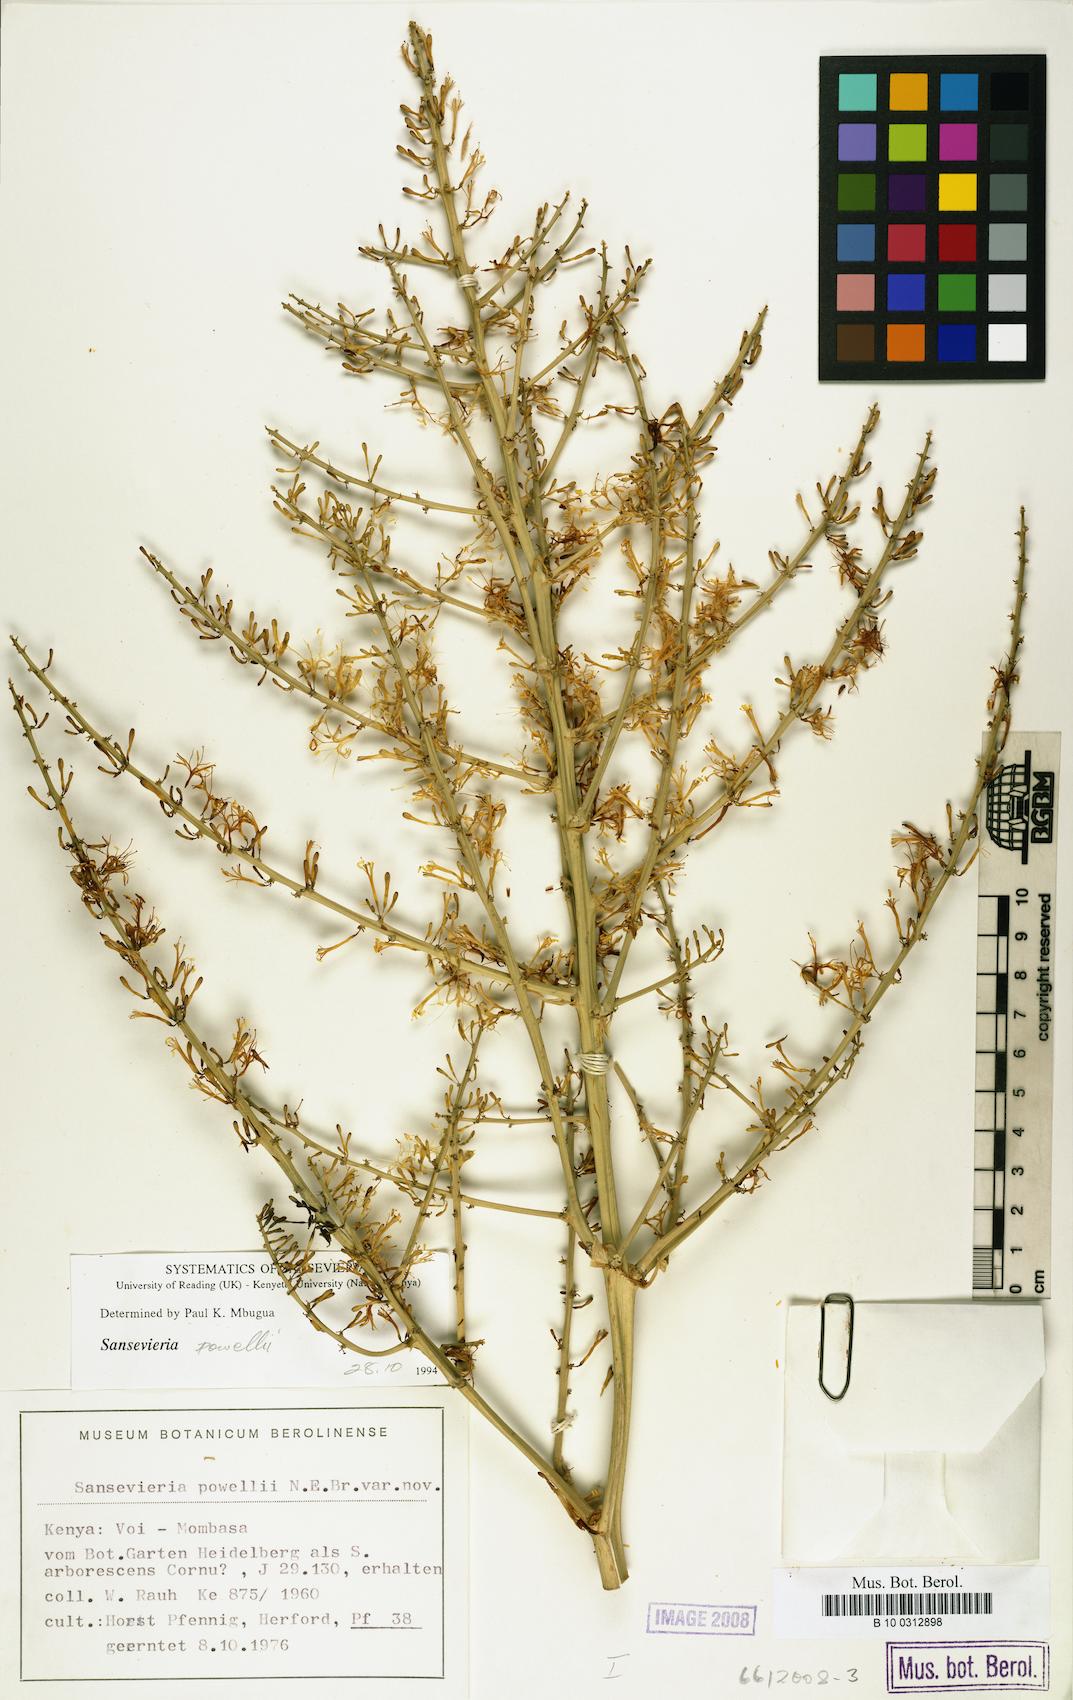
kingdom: Plantae
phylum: Tracheophyta
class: Liliopsida
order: Asparagales
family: Asparagaceae
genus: Dracaena
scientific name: Dracaena powellii
